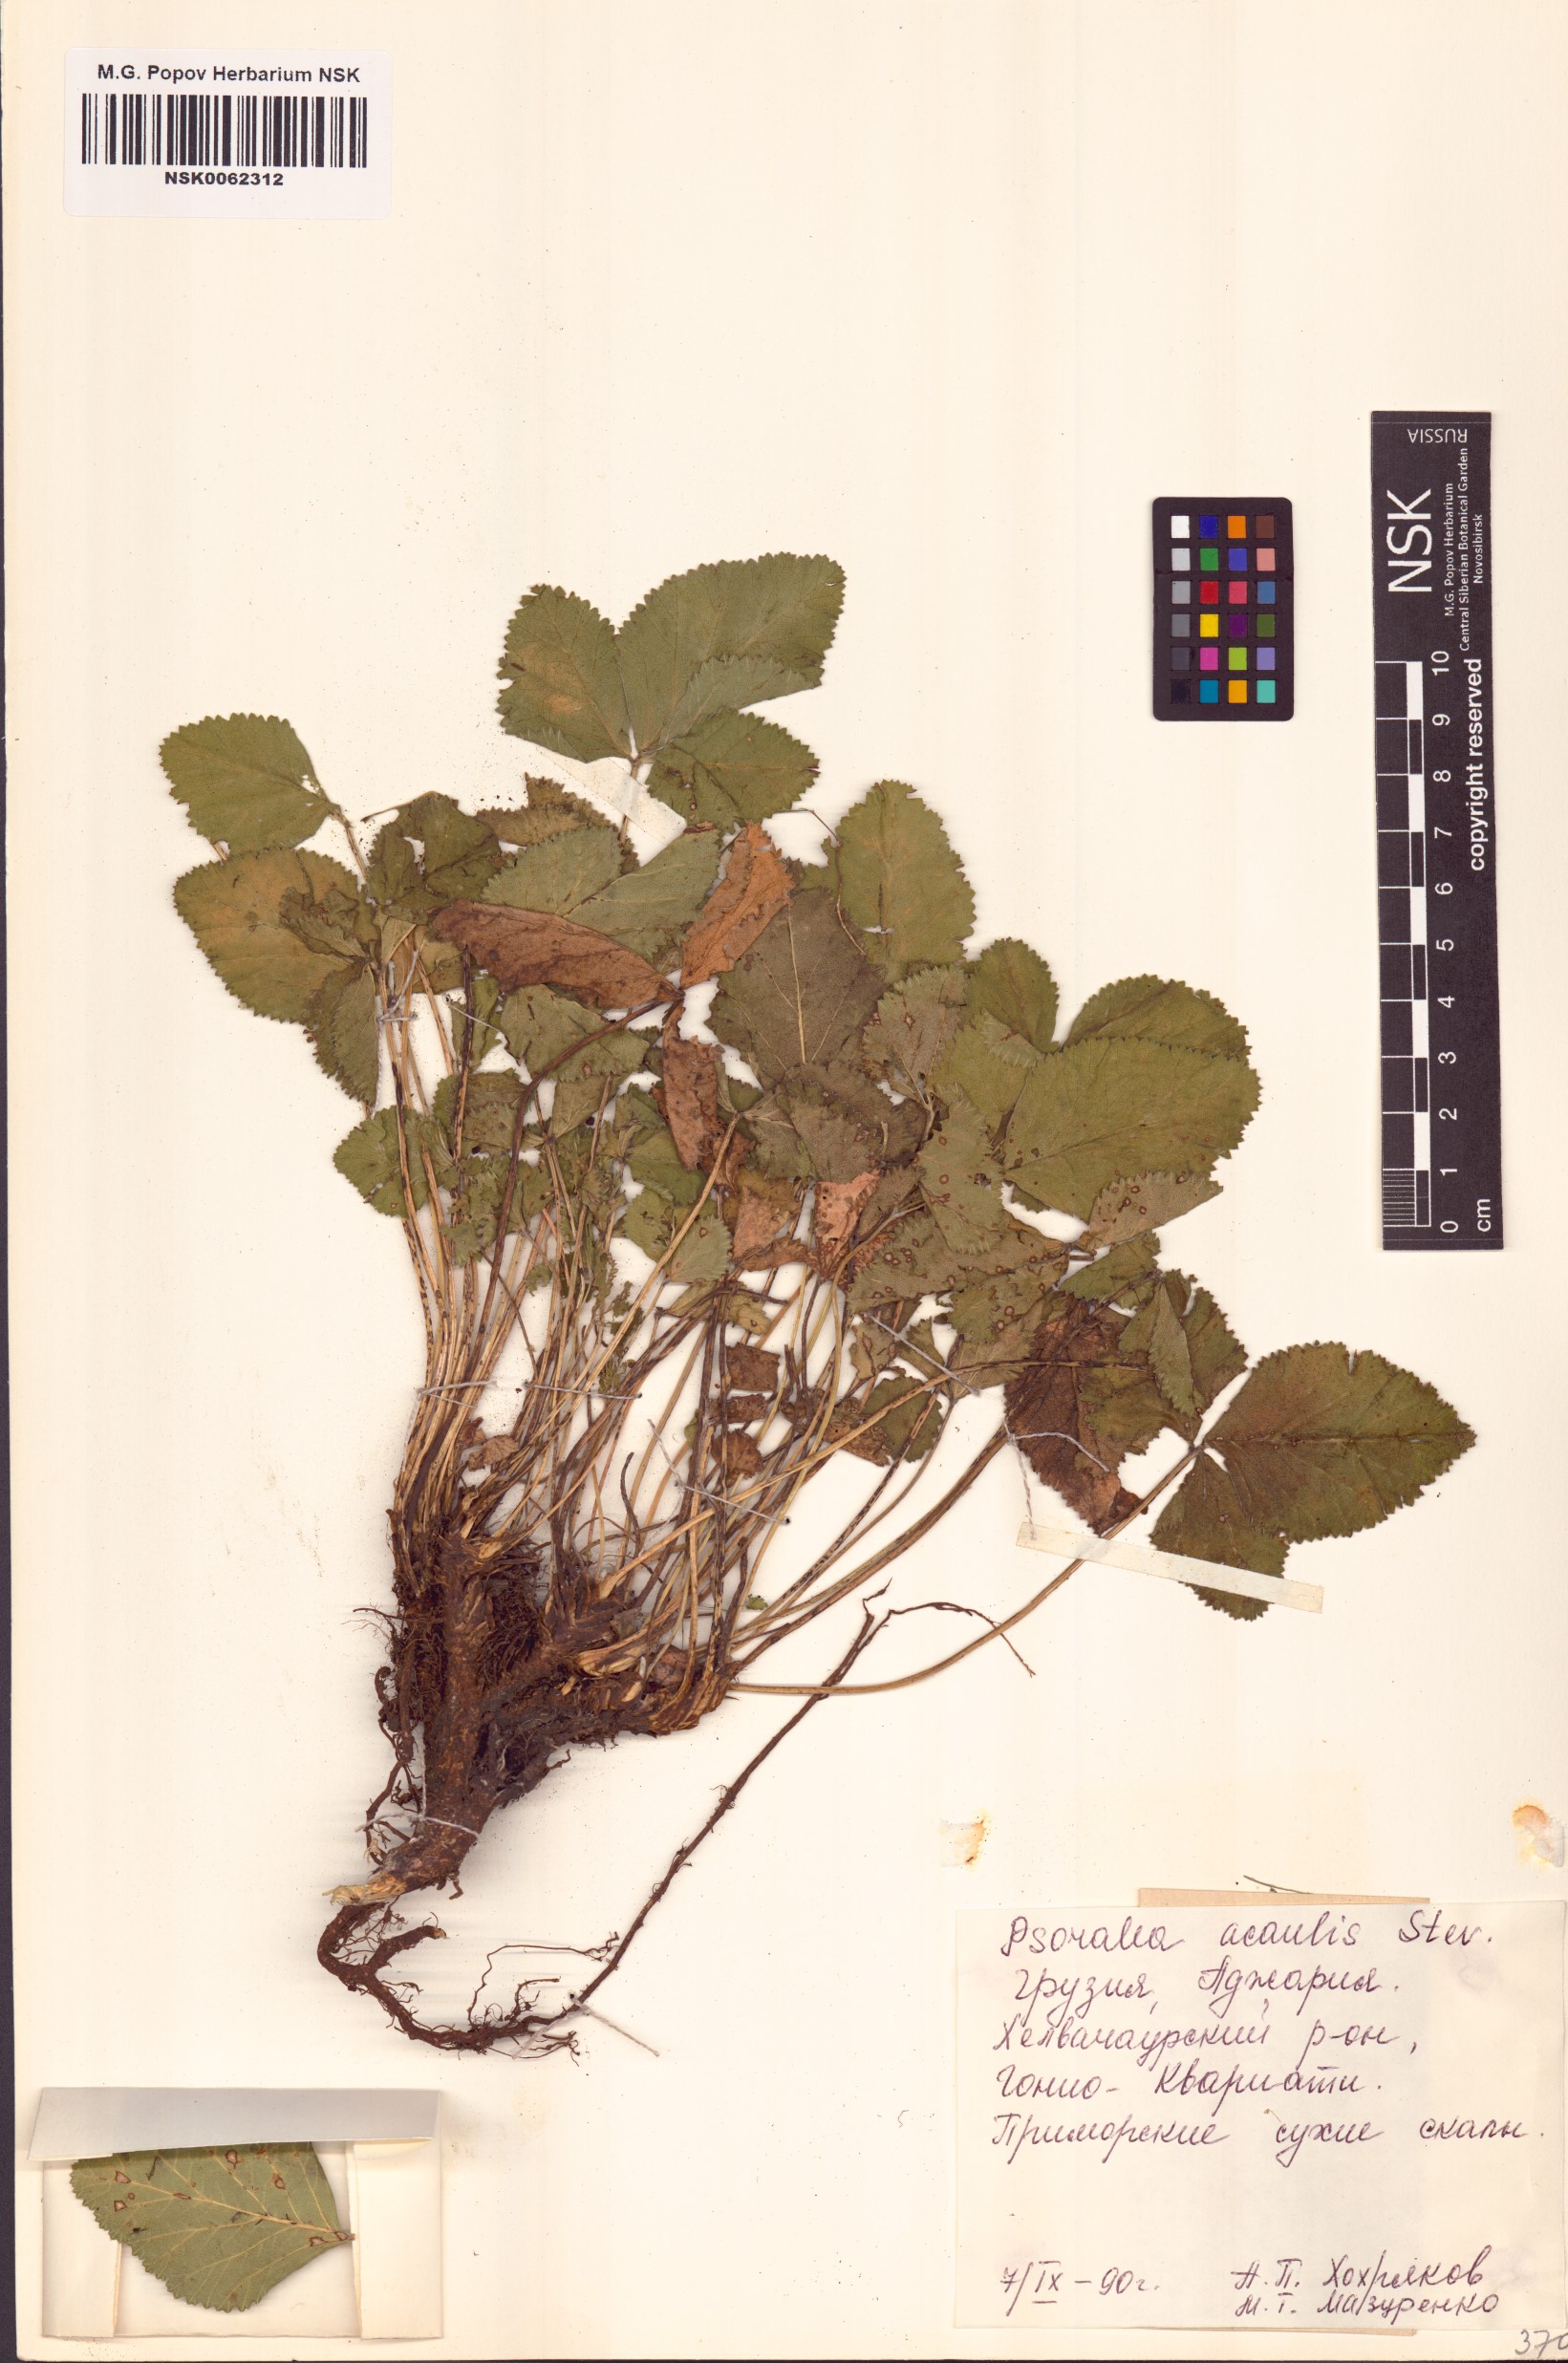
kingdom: Plantae
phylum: Tracheophyta
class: Magnoliopsida
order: Fabales
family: Fabaceae
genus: Kartalinia
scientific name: Kartalinia acaulis
